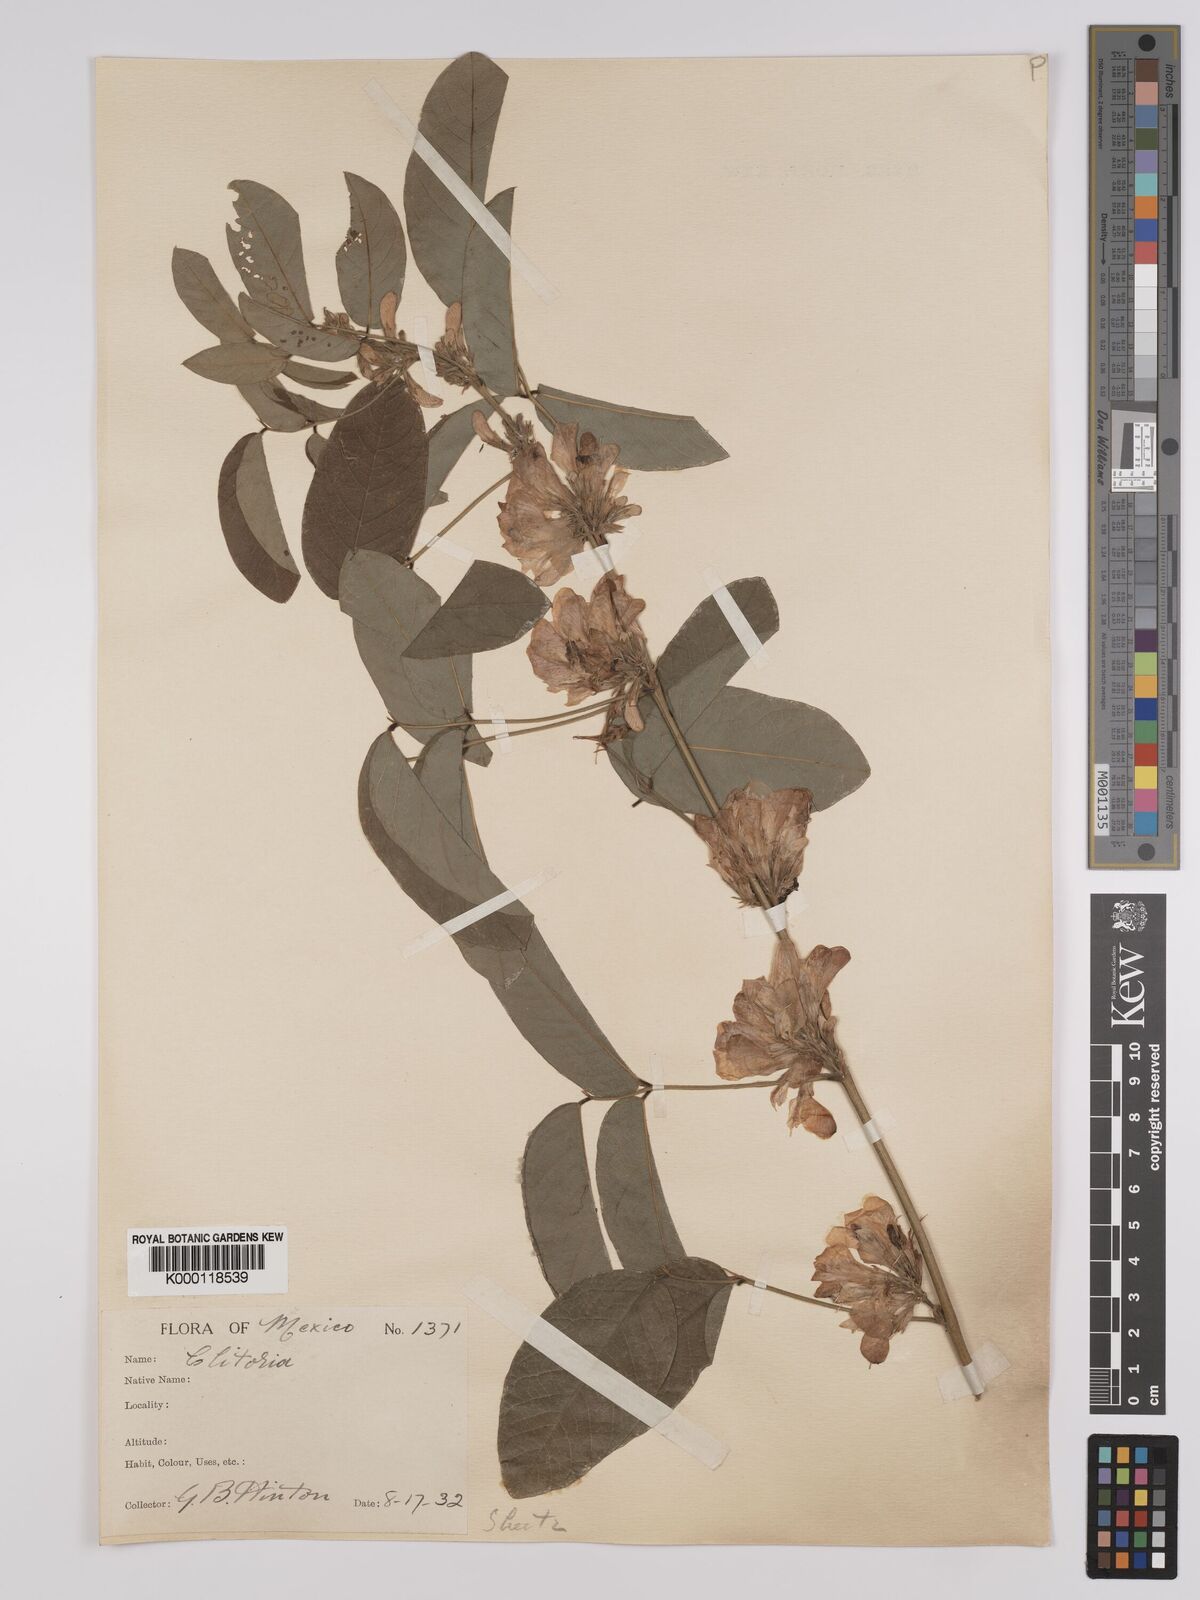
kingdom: Plantae
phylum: Tracheophyta
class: Magnoliopsida
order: Fabales
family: Fabaceae
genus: Clitoria
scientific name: Clitoria polystachya
